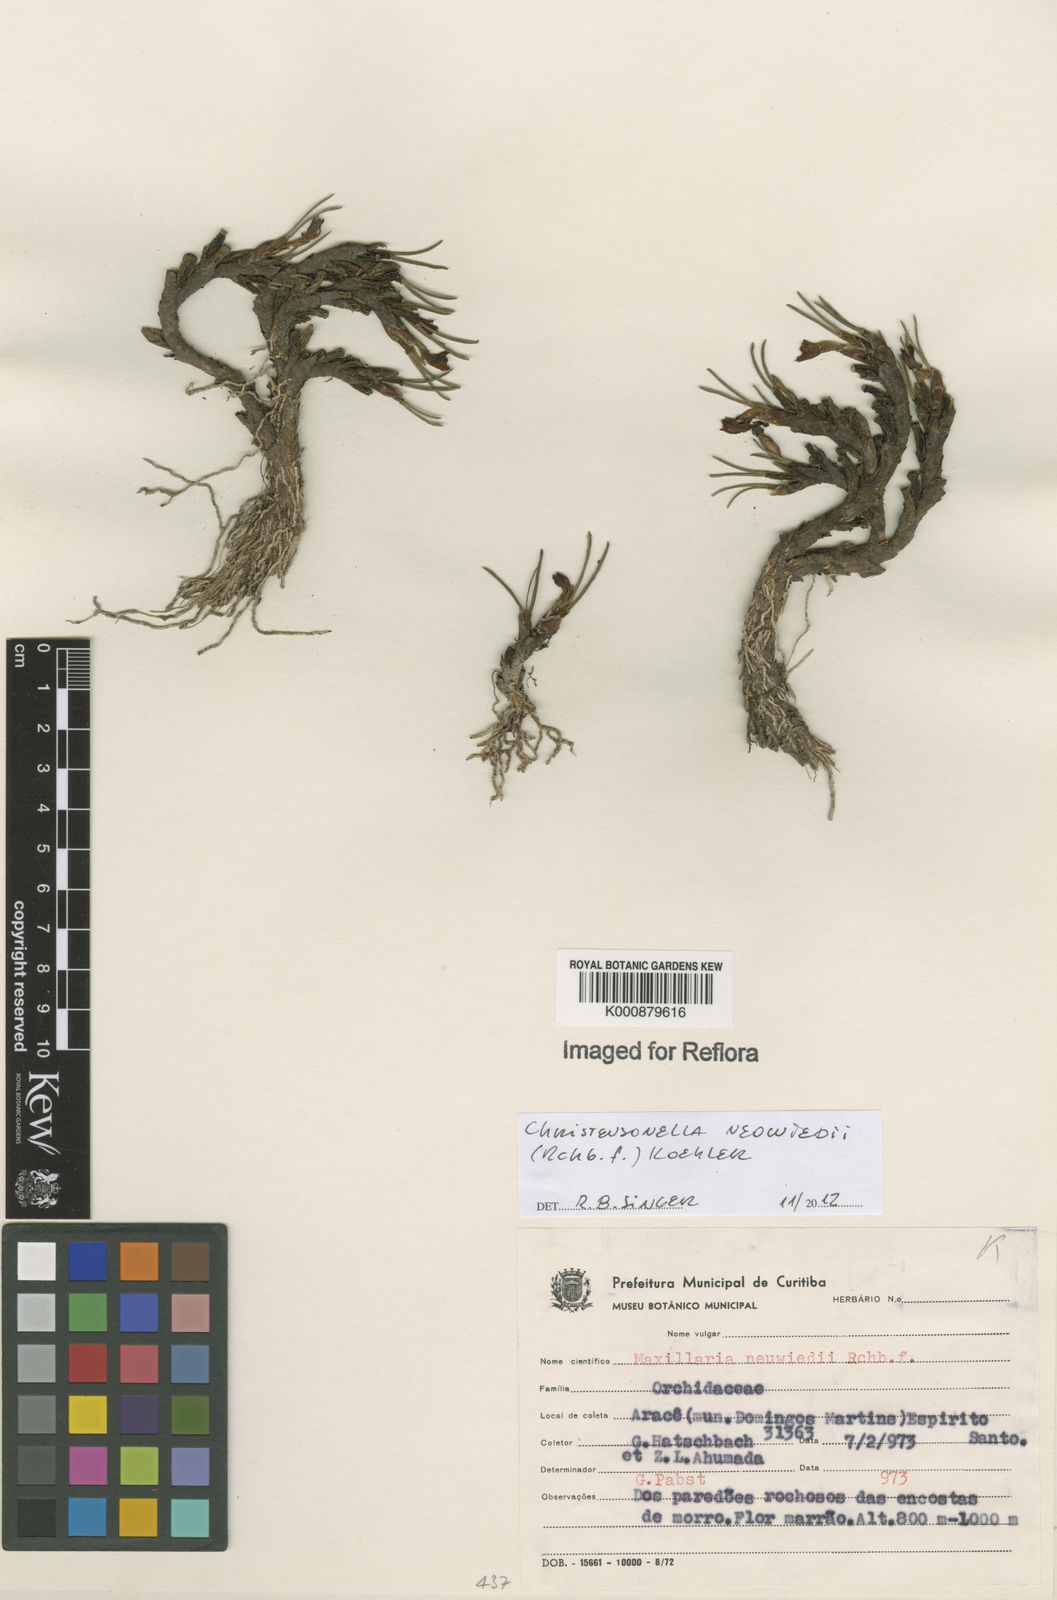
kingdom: Plantae
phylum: Tracheophyta
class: Liliopsida
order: Asparagales
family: Orchidaceae
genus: Maxillaria
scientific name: Maxillaria
